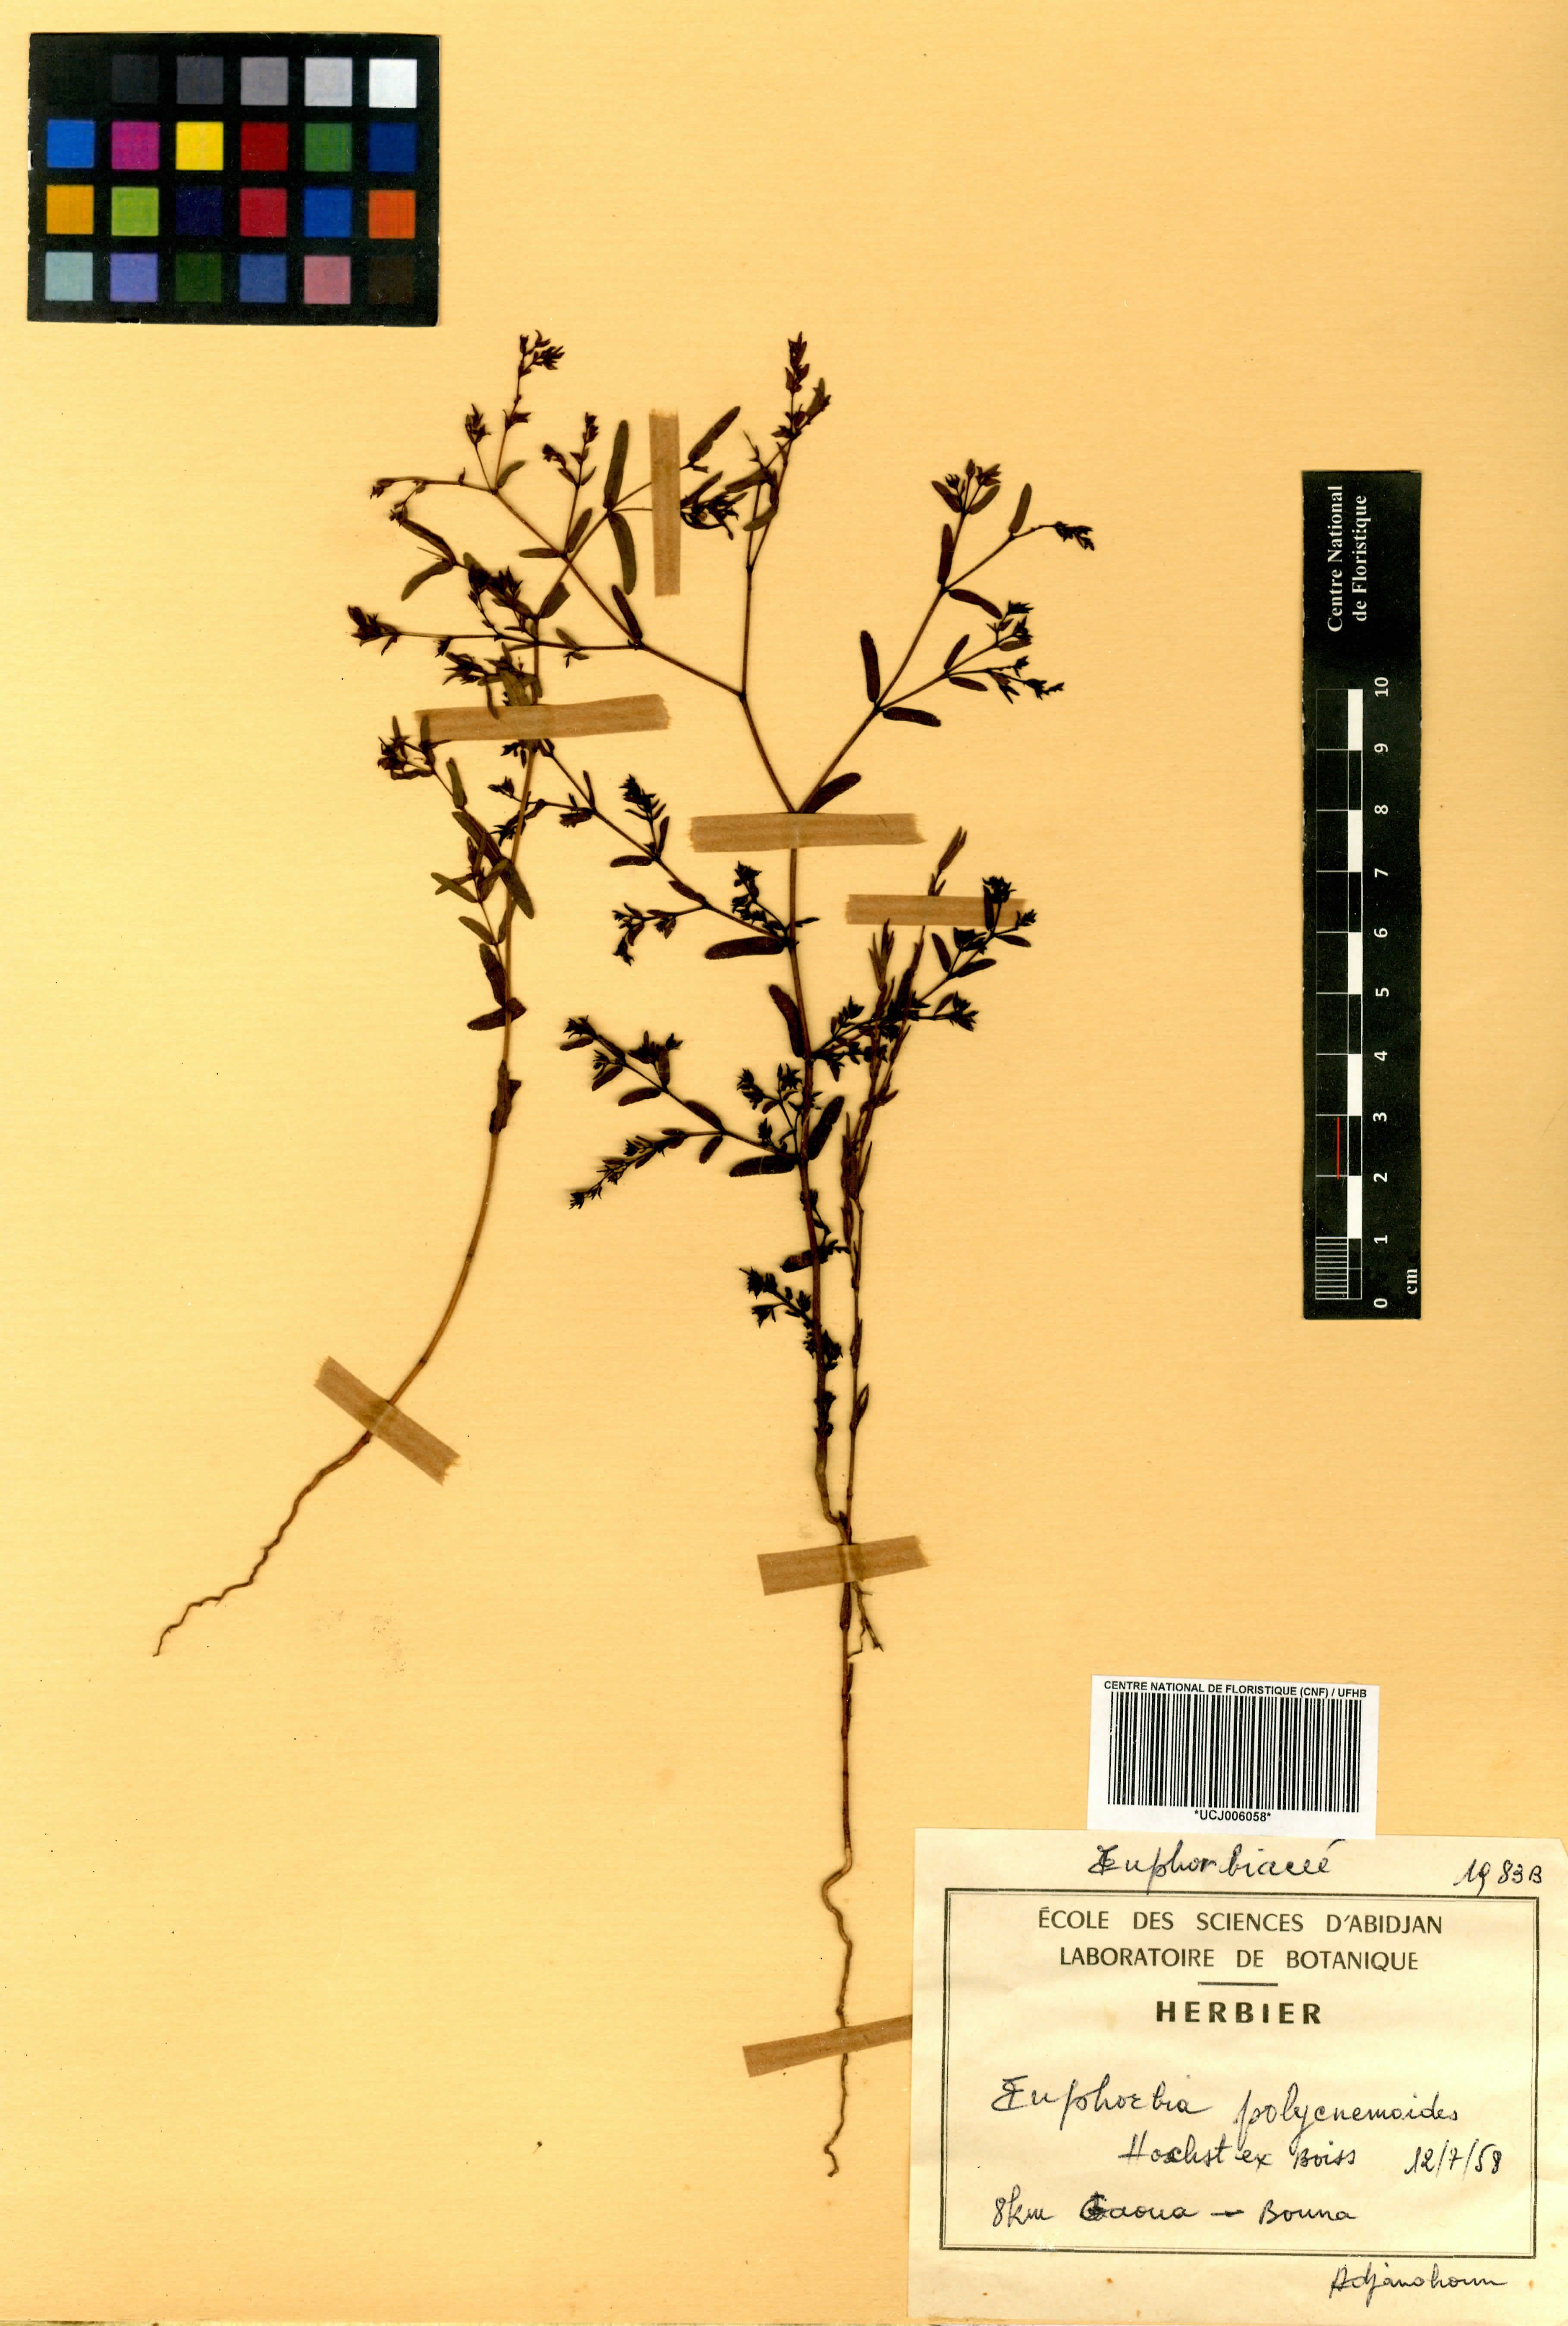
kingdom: Plantae
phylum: Tracheophyta
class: Magnoliopsida
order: Malpighiales
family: Euphorbiaceae
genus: Euphorbia
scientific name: Euphorbia polycnemoides
